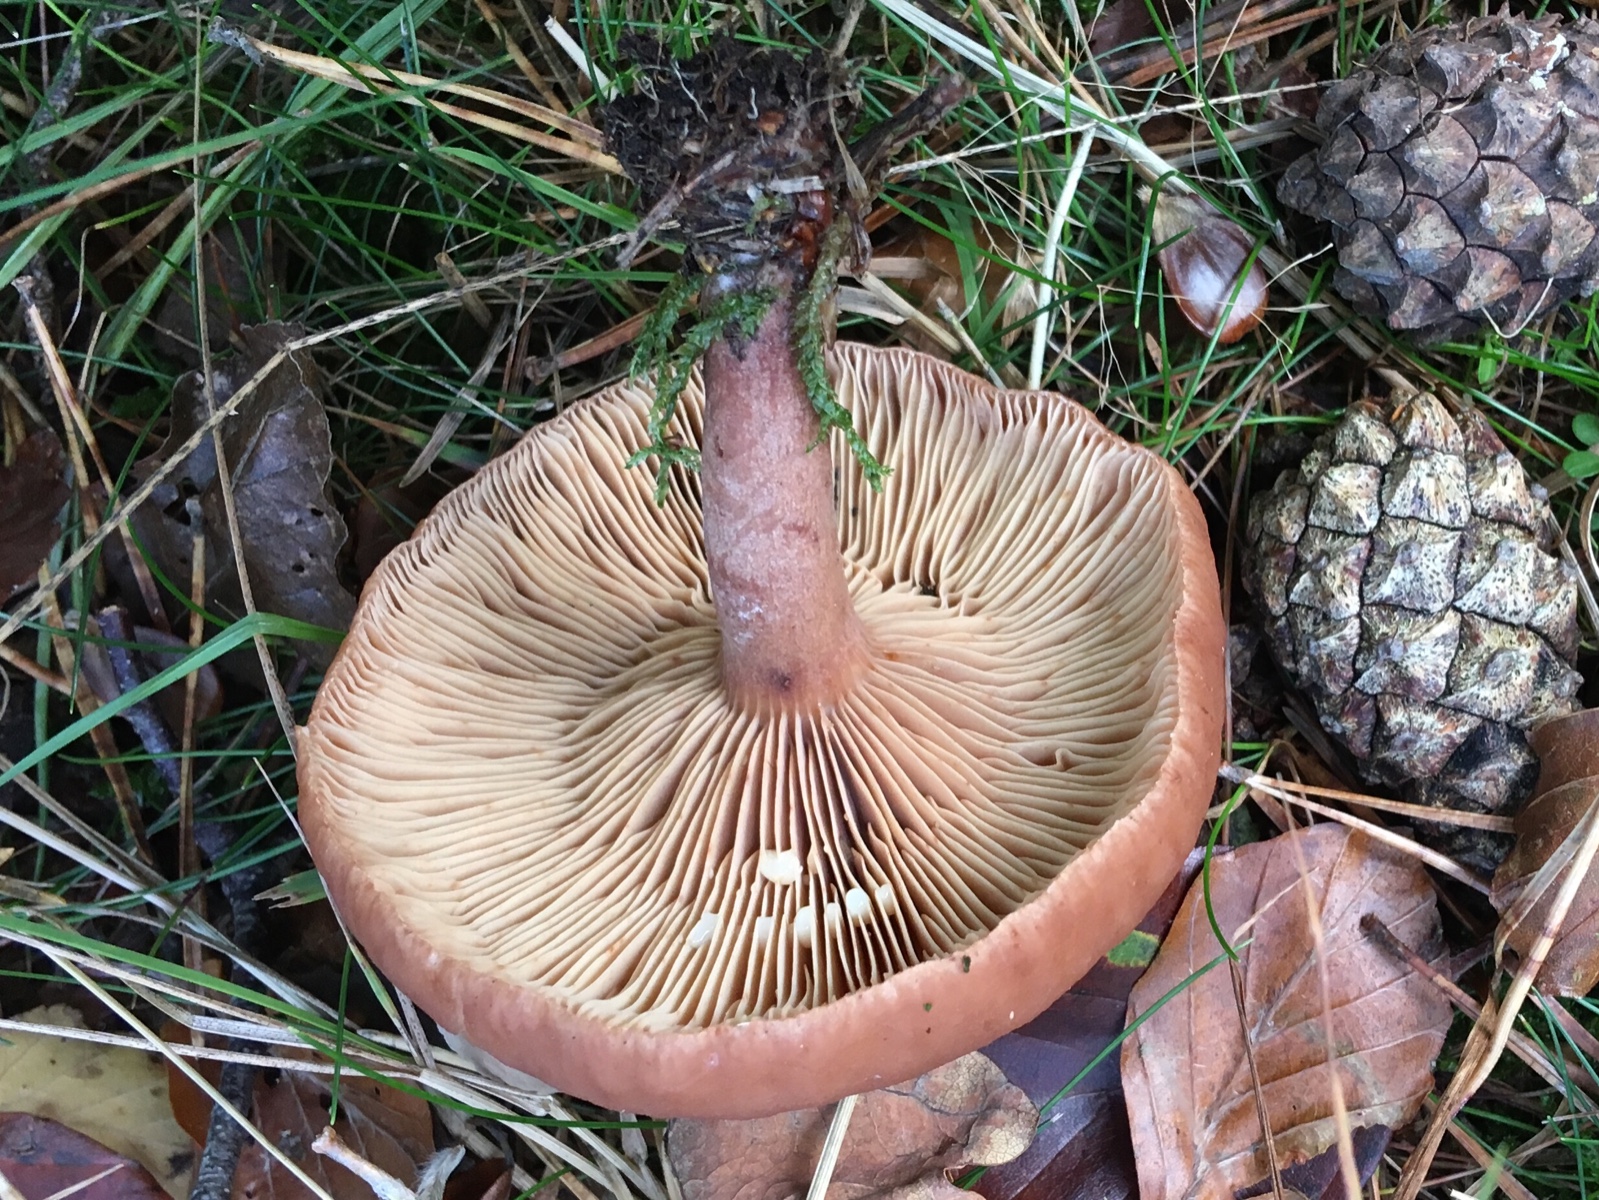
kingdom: Fungi
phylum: Basidiomycota
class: Agaricomycetes
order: Russulales
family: Russulaceae
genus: Lactarius
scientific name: Lactarius camphoratus
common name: kamfer-mælkehat
